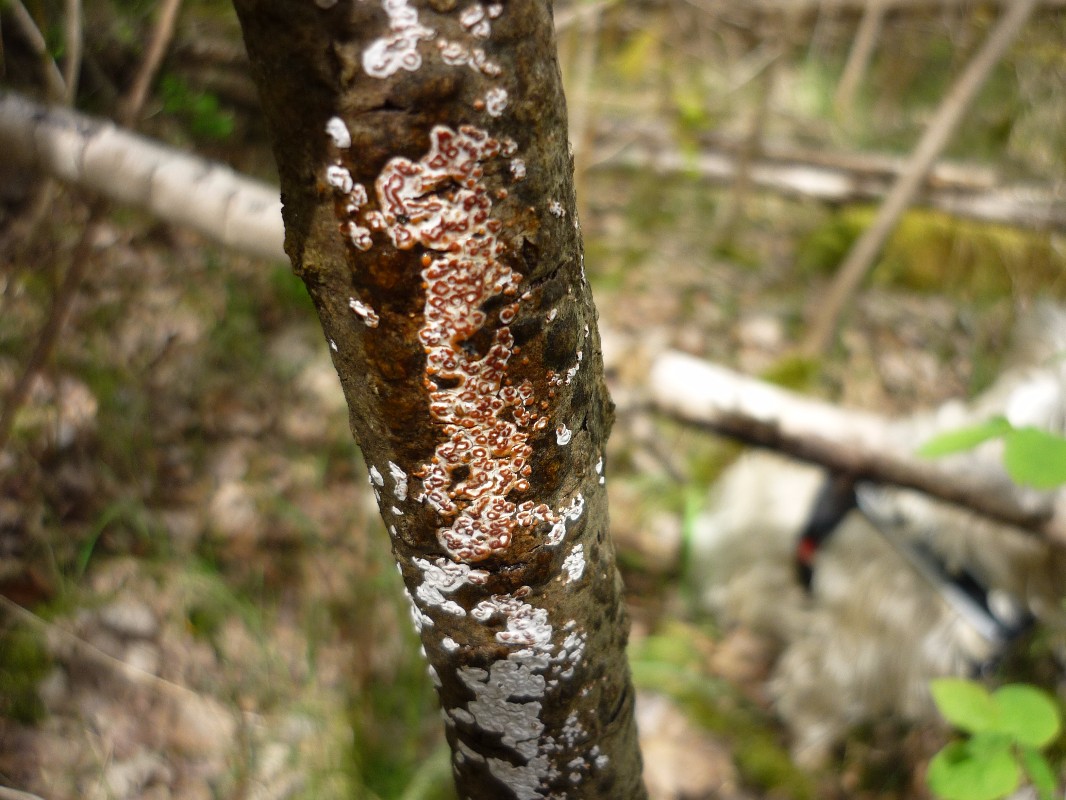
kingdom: Fungi
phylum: Basidiomycota
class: Agaricomycetes
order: Russulales
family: Peniophoraceae
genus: Peniophora
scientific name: Peniophora polygonia
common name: polygon-voksskind
